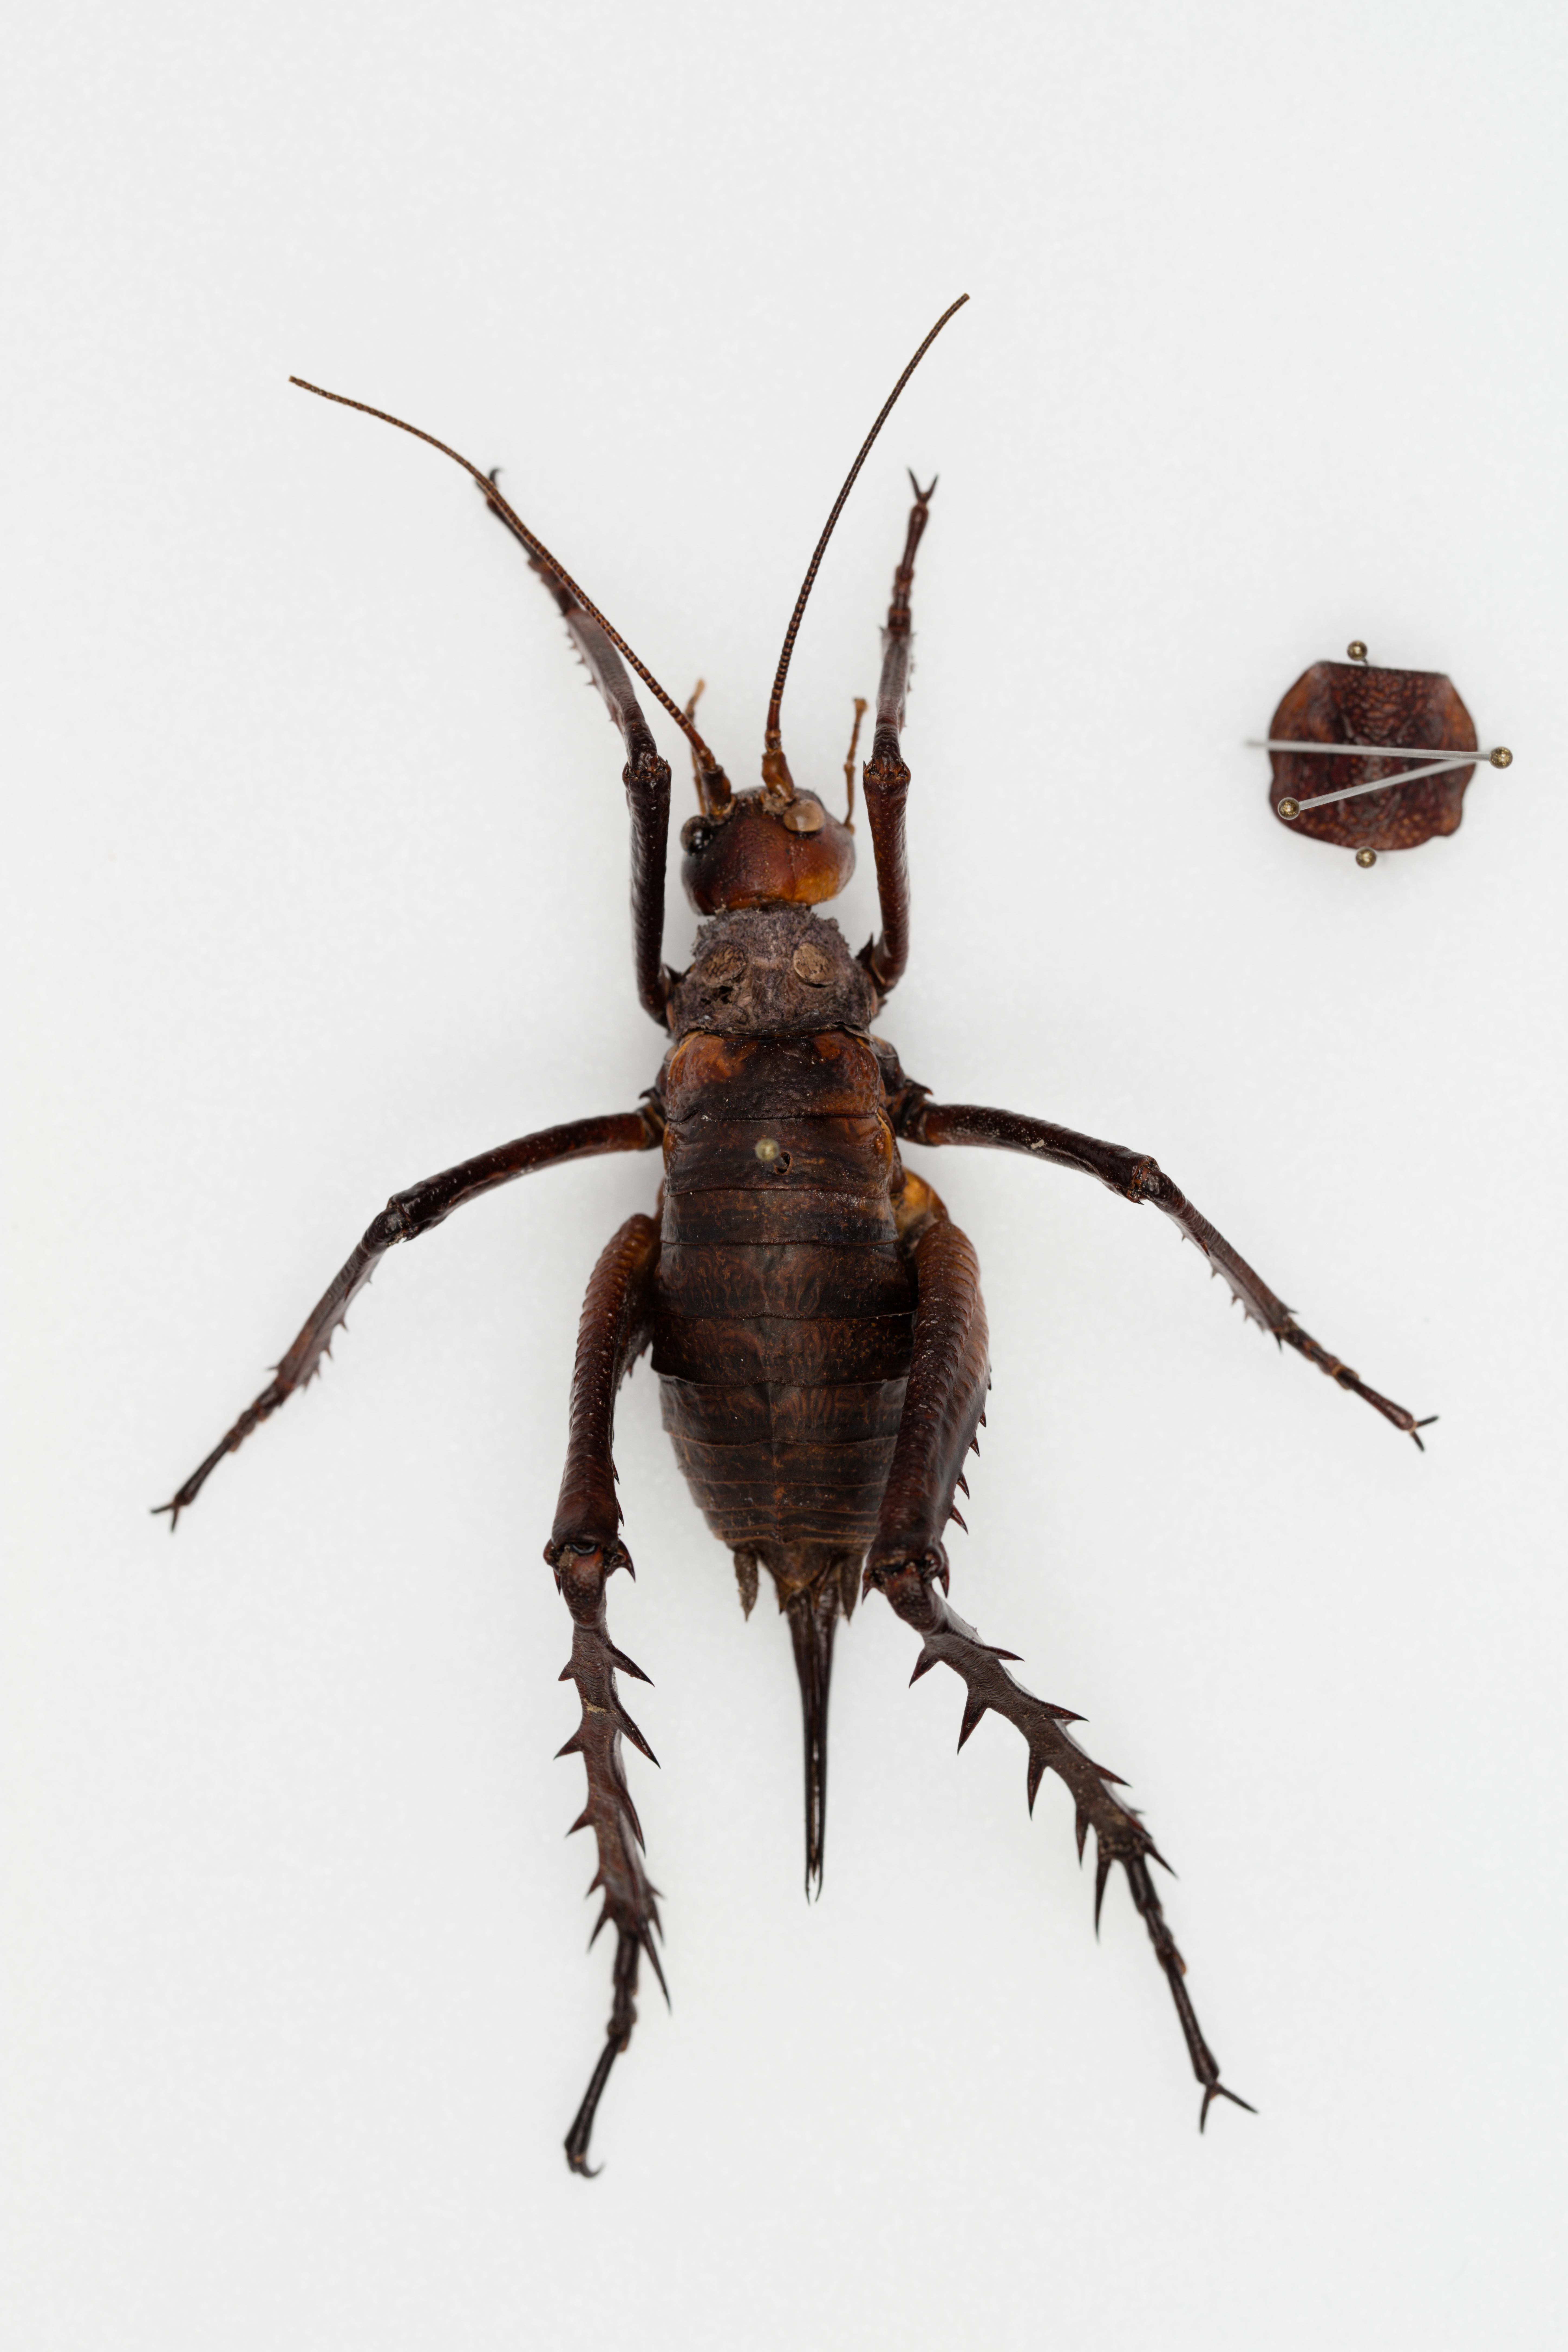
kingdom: Animalia
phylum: Arthropoda
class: Insecta
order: Orthoptera
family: Anostostomatidae
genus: Deinacrida
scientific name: Deinacrida mahoenui
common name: Mahoenui giant weta
